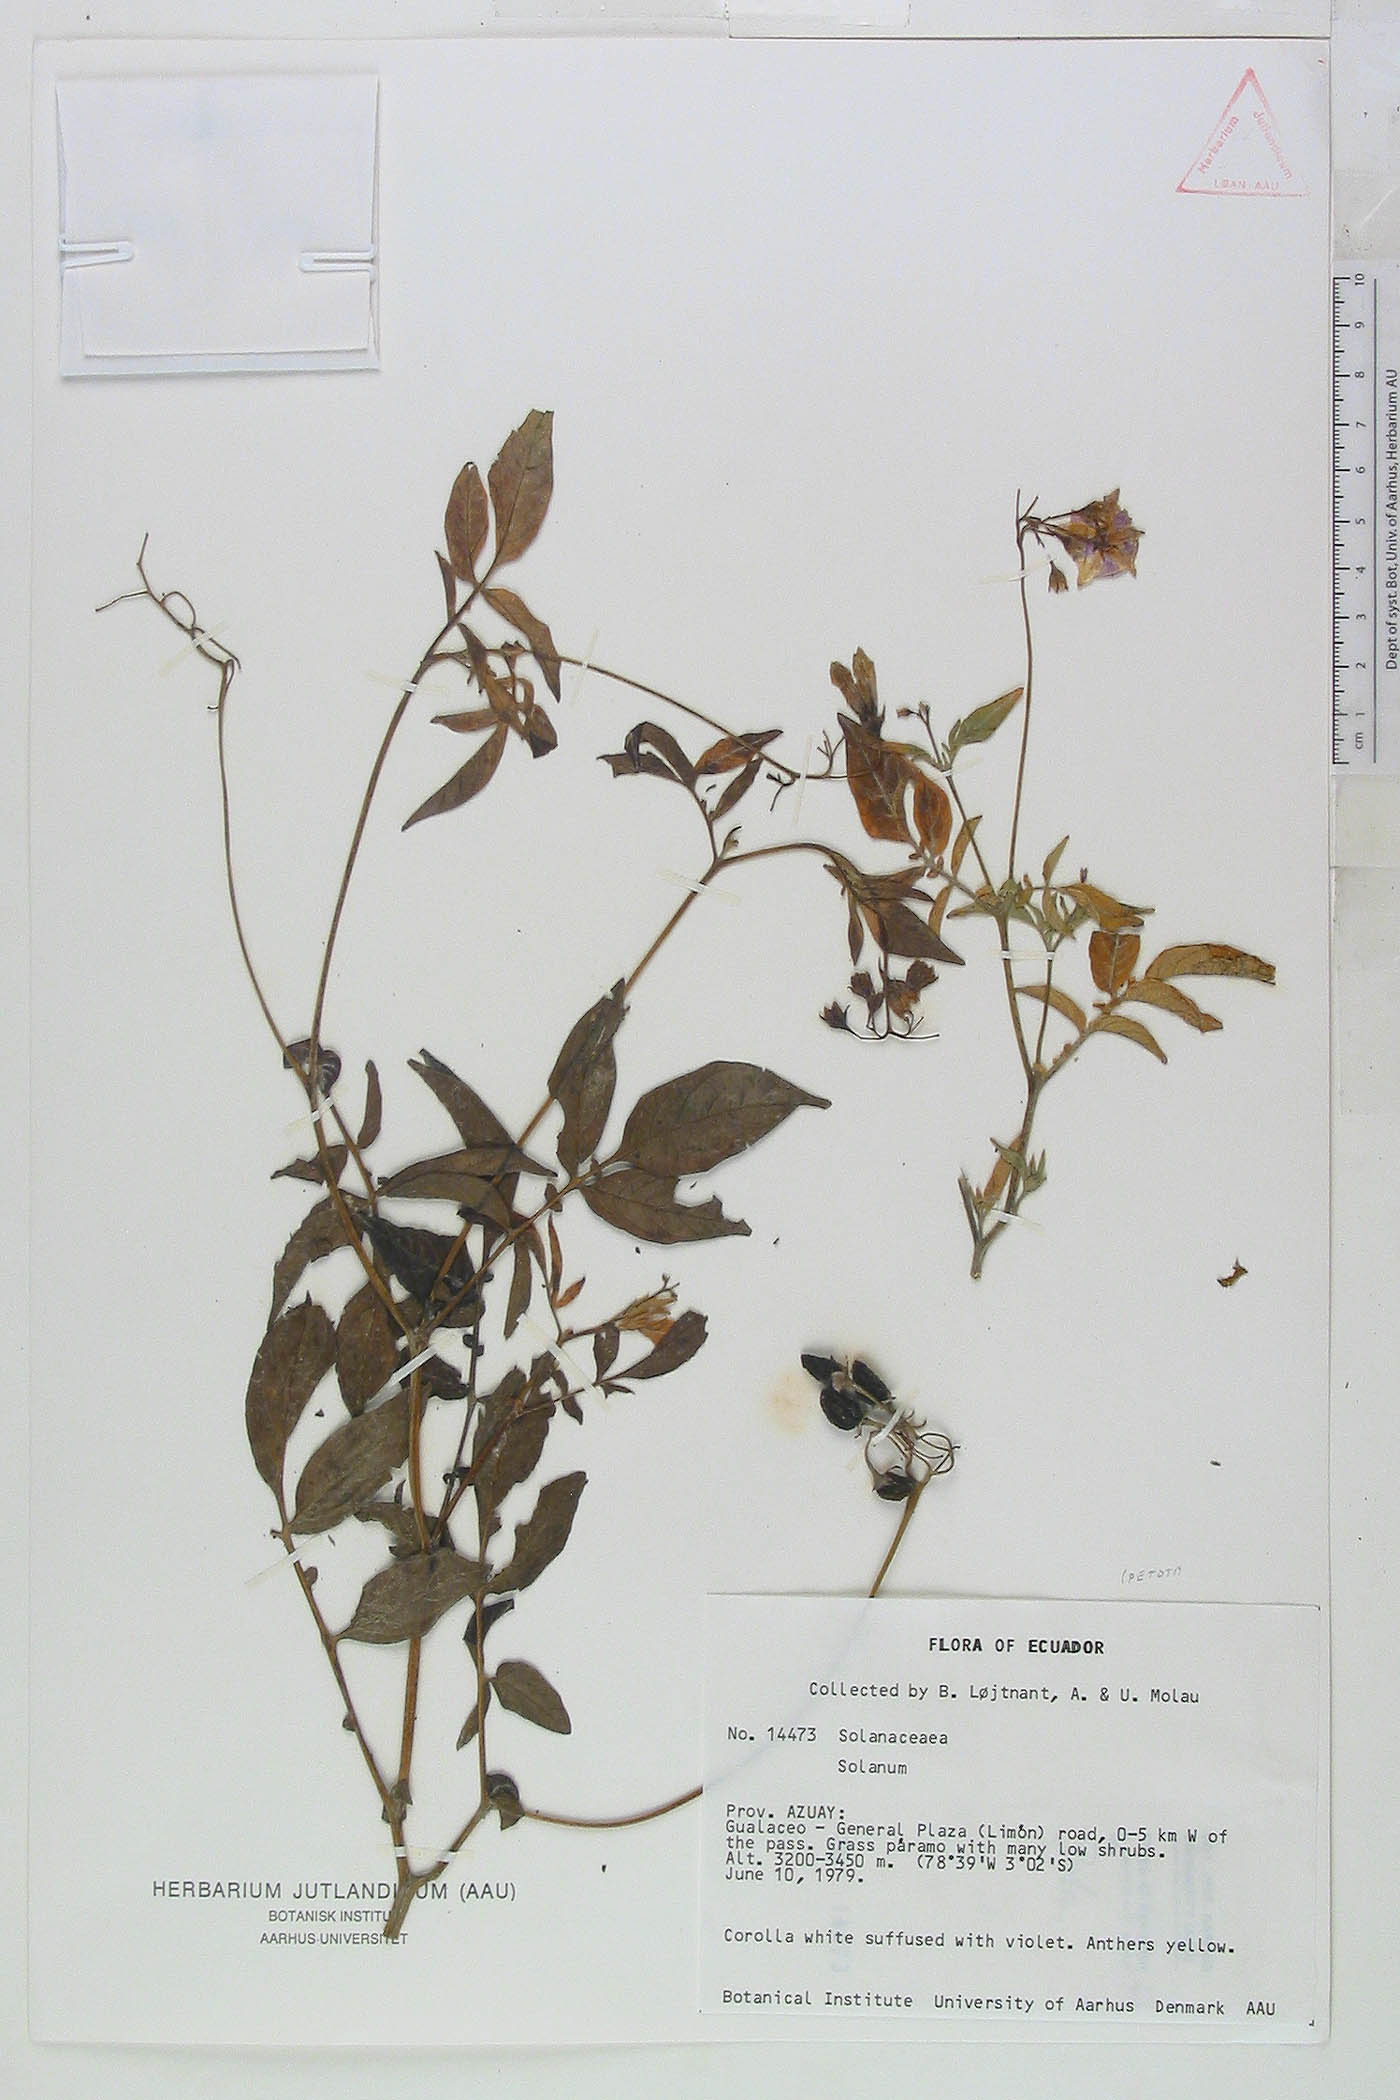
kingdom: Plantae
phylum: Tracheophyta
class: Magnoliopsida
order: Solanales
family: Solanaceae
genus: Solanum
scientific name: Solanum colombianum
